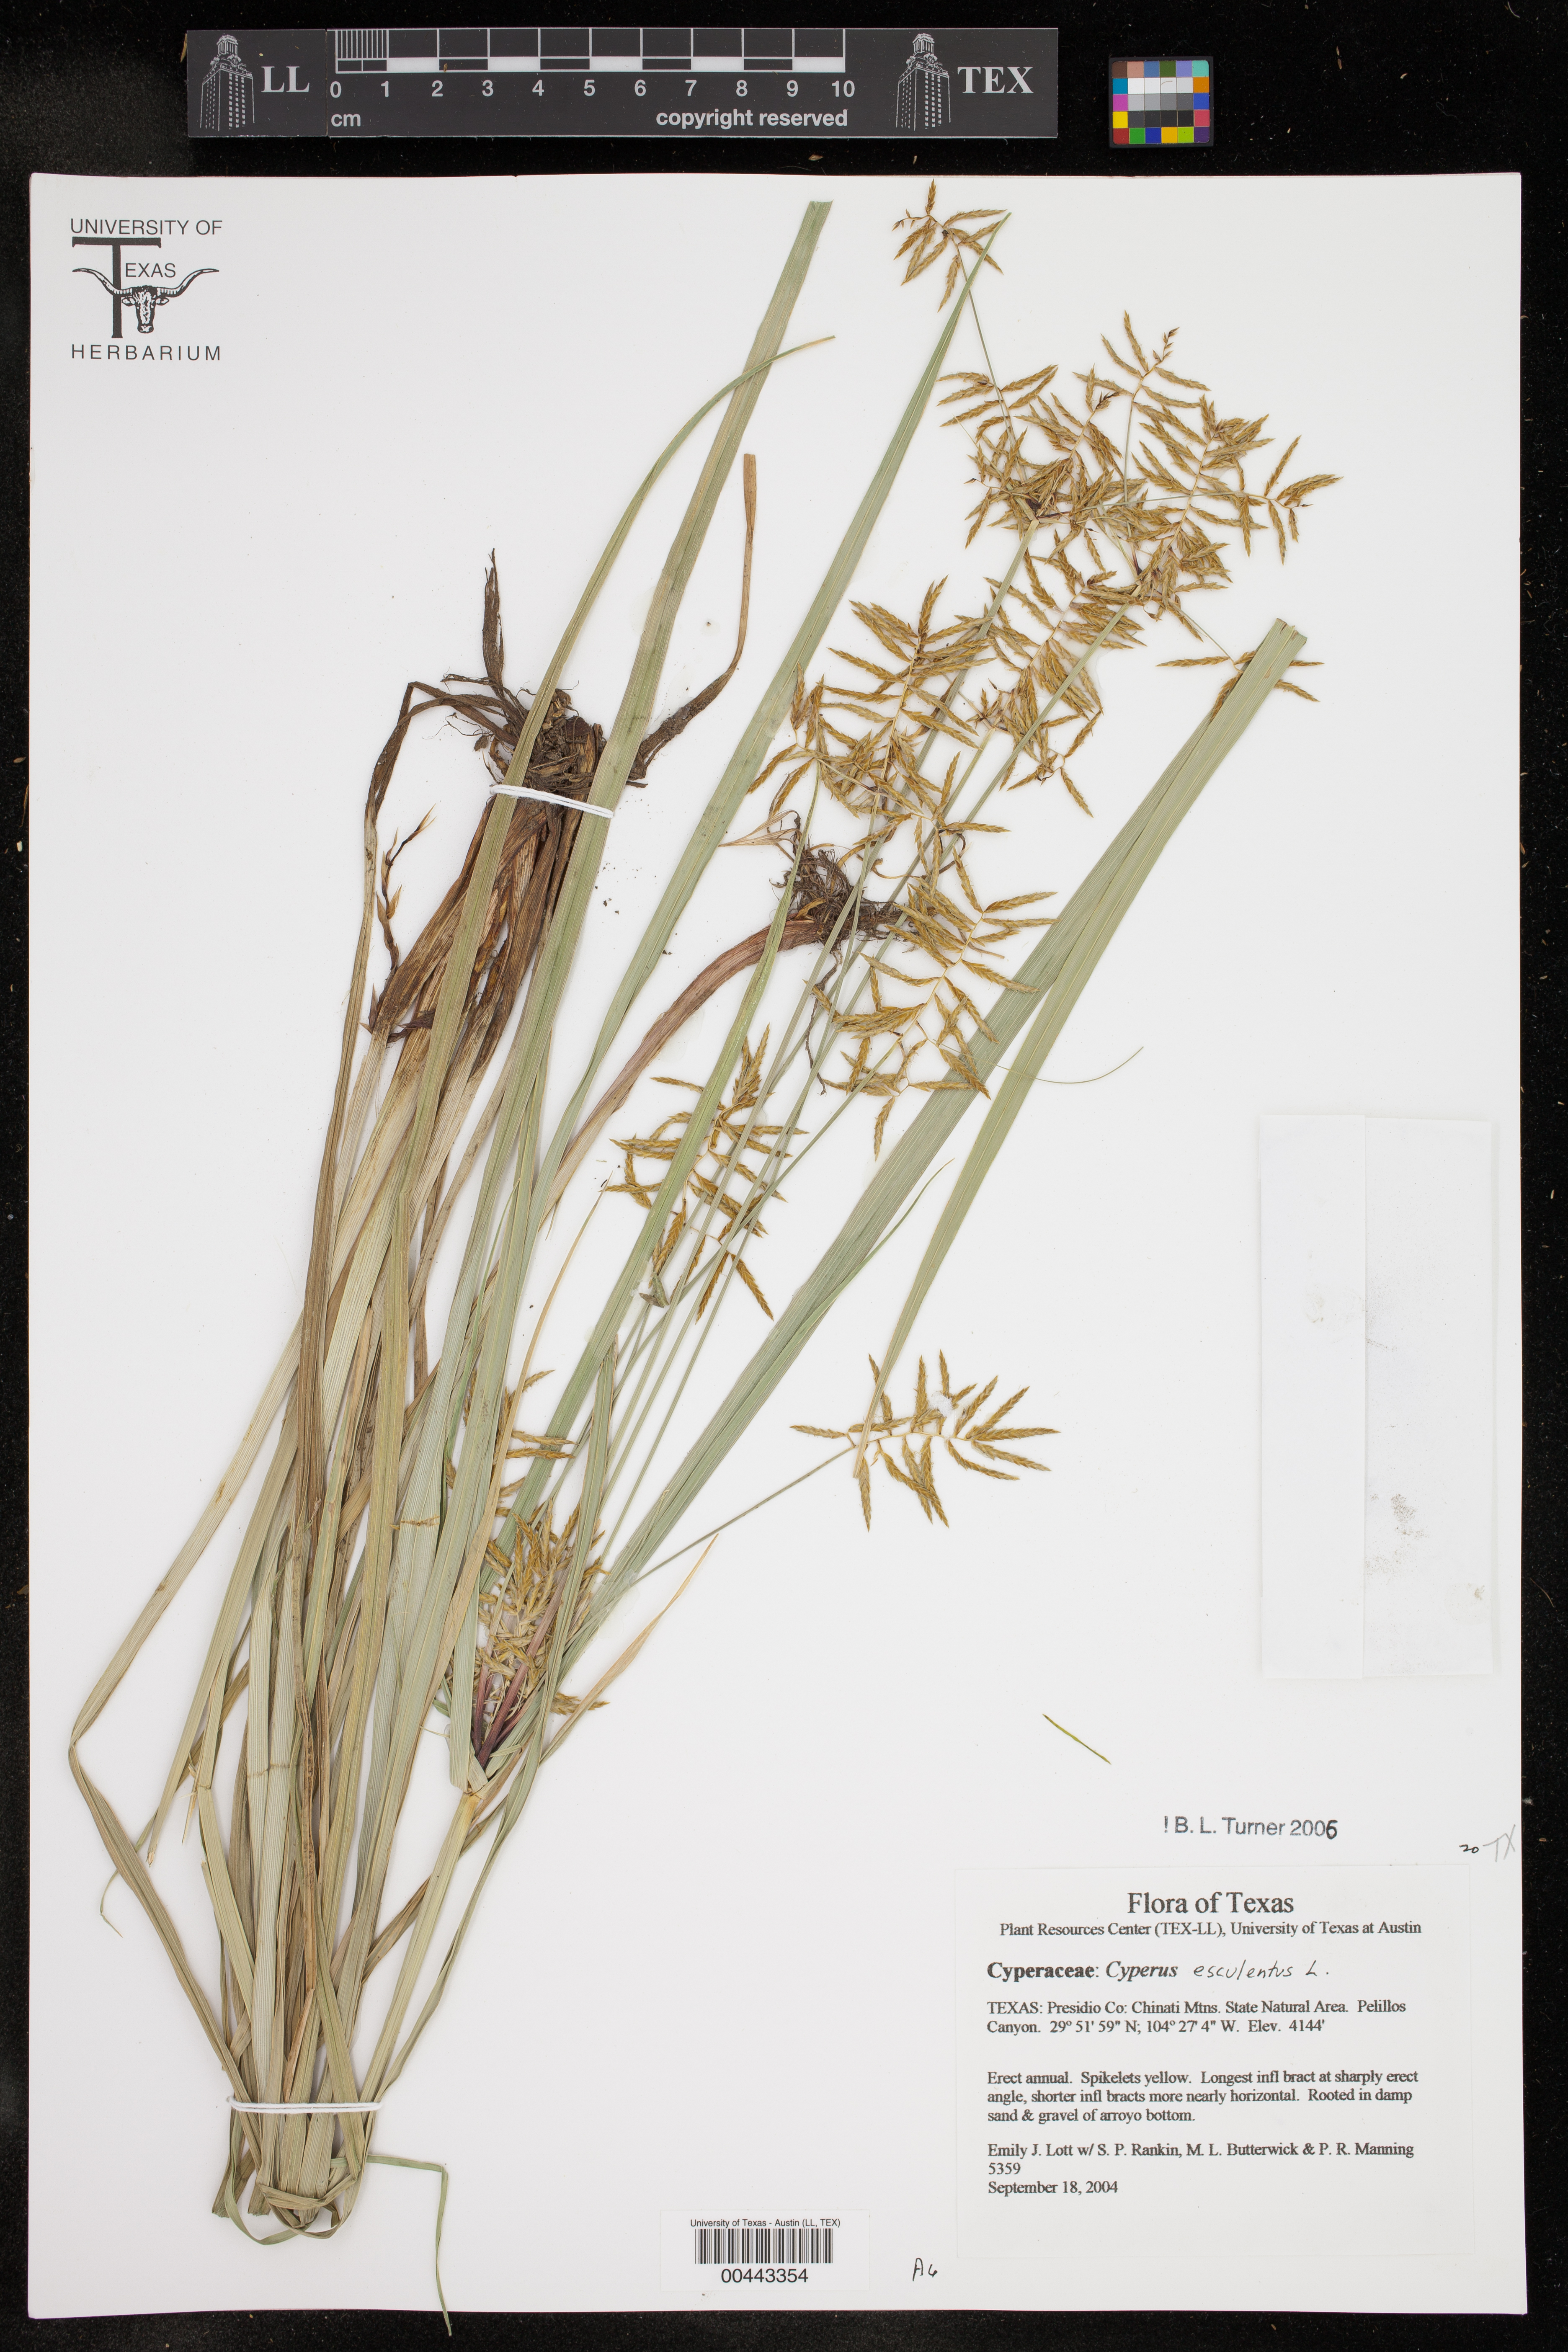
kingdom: Plantae
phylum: Tracheophyta
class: Liliopsida
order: Poales
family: Cyperaceae
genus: Cyperus
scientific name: Cyperus esculentus
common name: Yellow nutsedge
